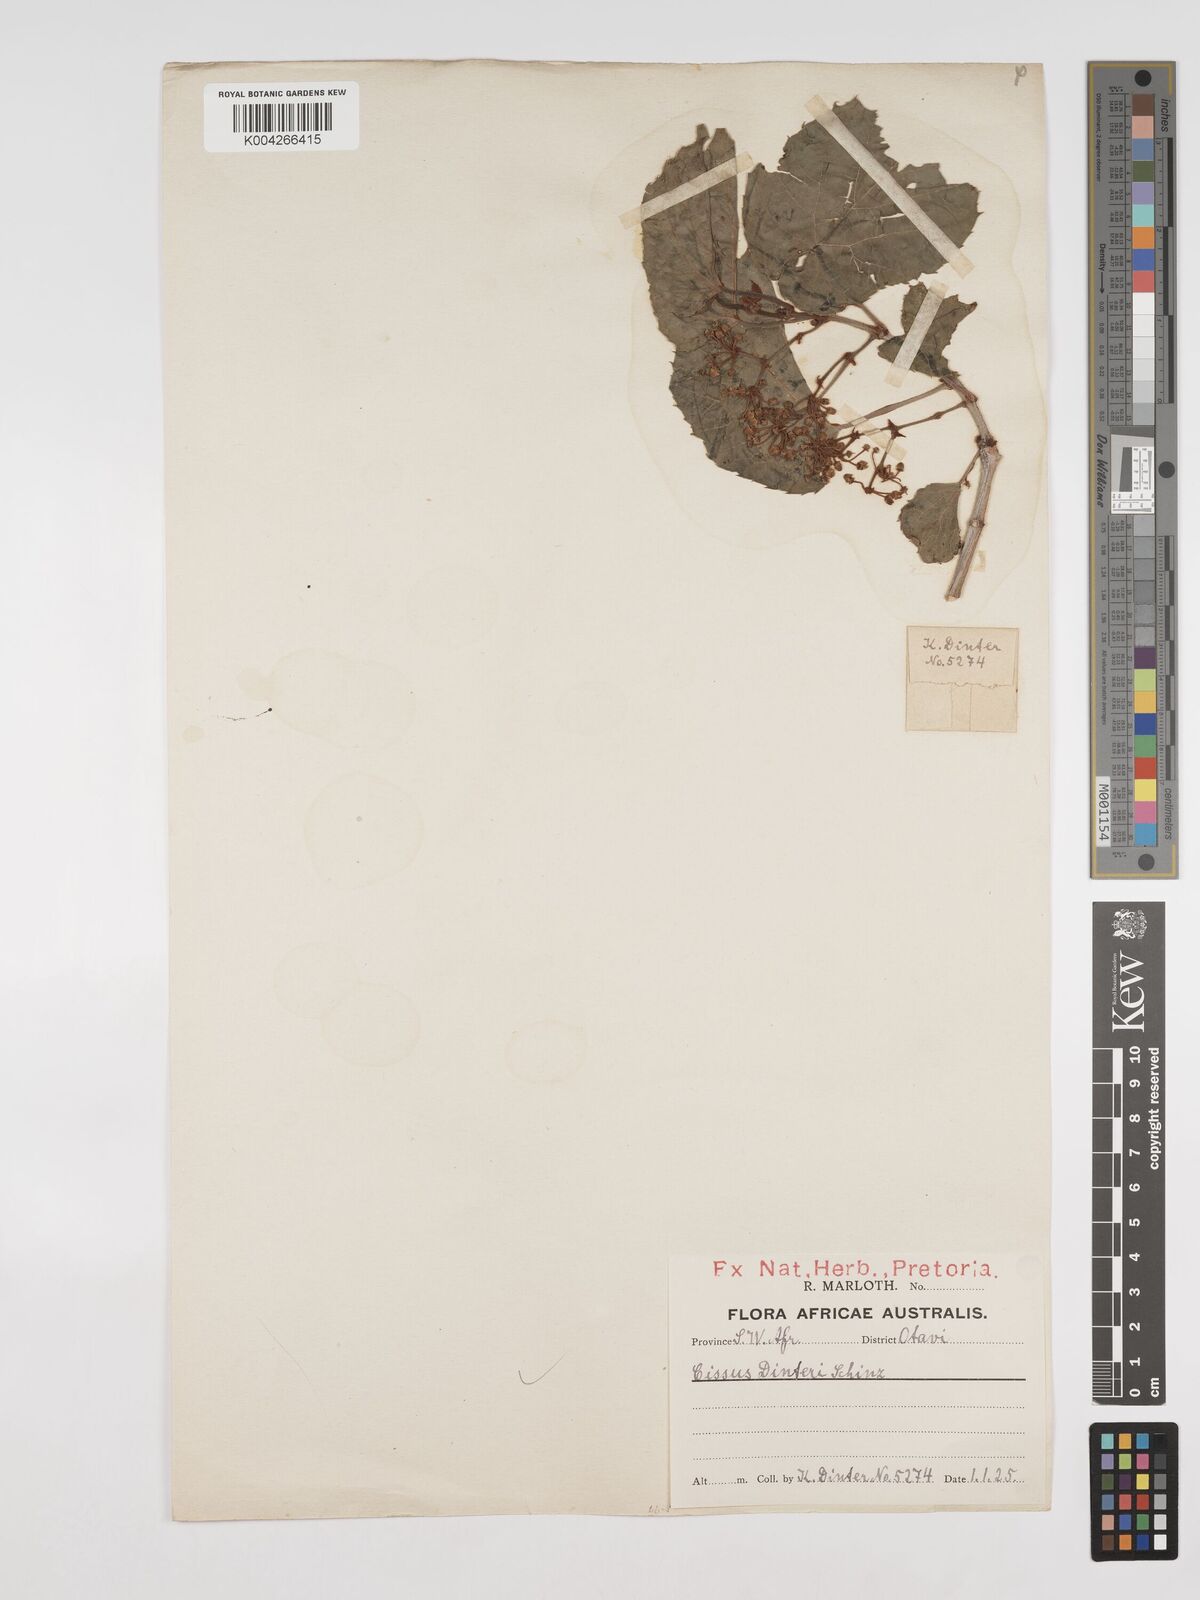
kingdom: Plantae
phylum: Tracheophyta
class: Magnoliopsida
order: Vitales
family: Vitaceae
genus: Cissus
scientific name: Cissus nymphaeifolia
